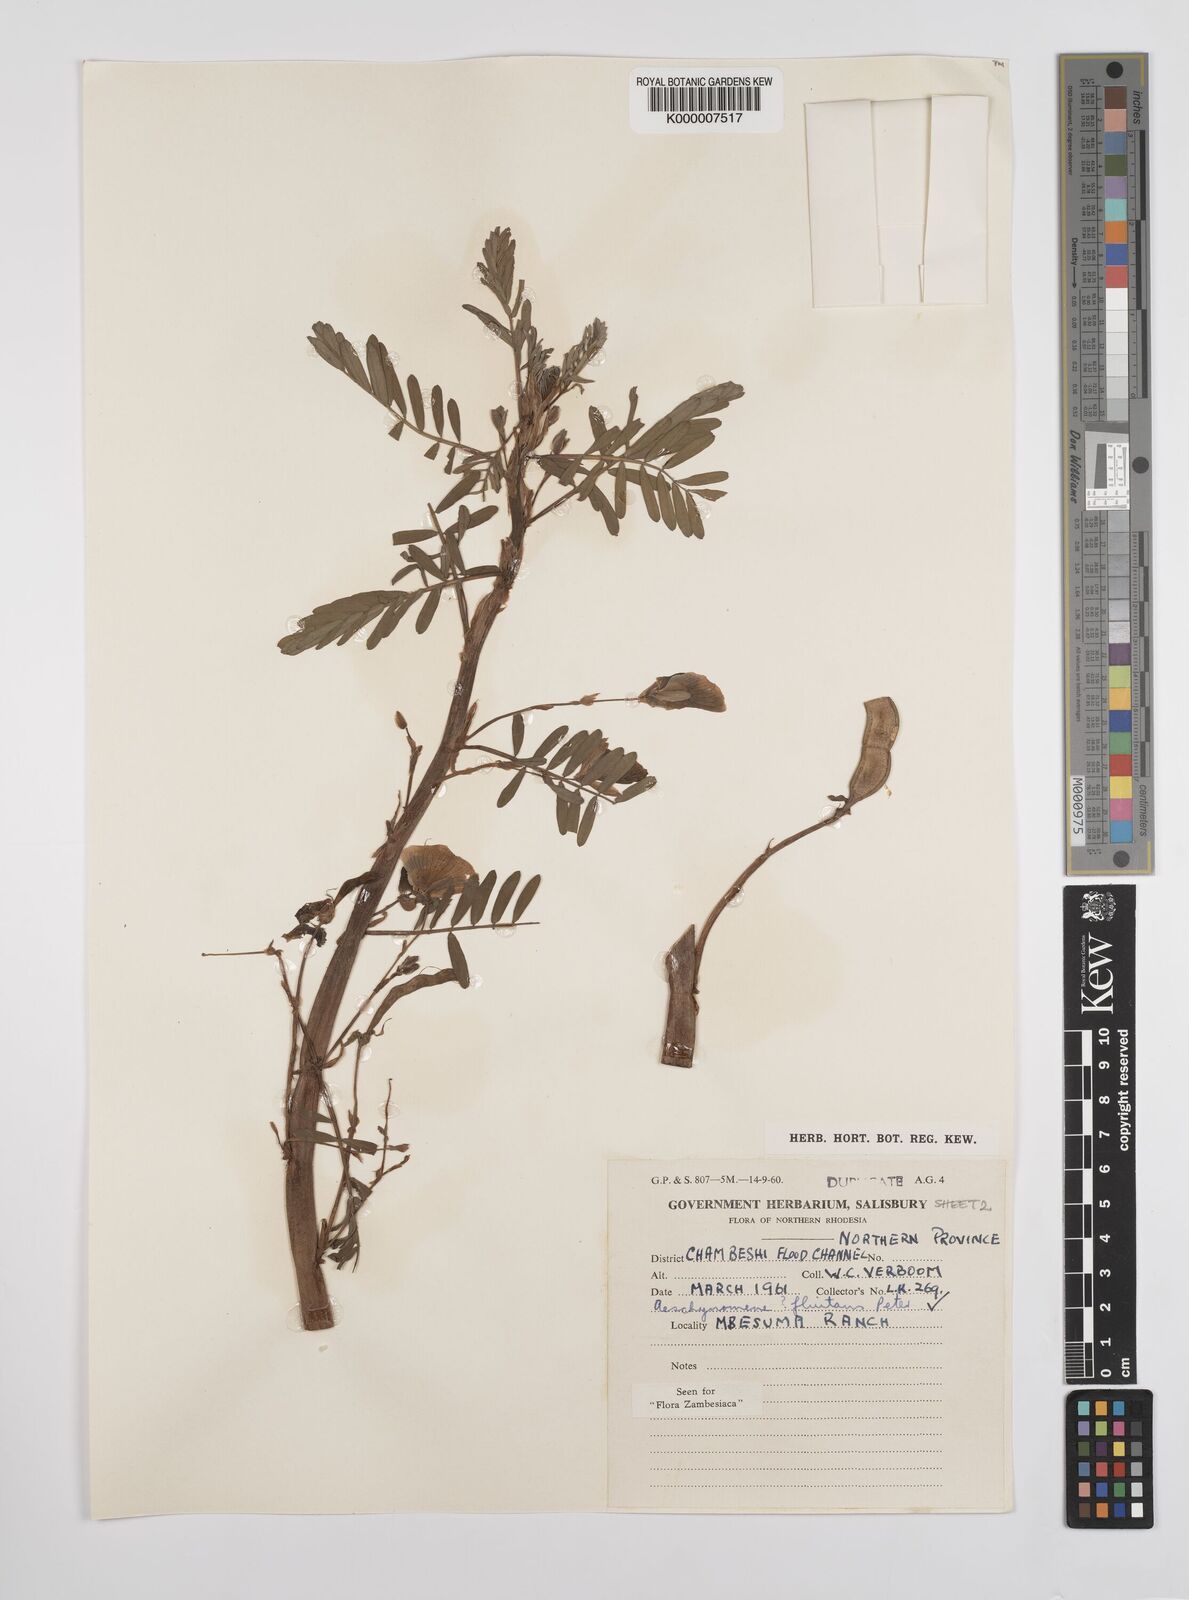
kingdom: Plantae
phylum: Tracheophyta
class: Magnoliopsida
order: Fabales
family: Fabaceae
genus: Aeschynomene
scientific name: Aeschynomene fluitans
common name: Giant water sensitive plant
